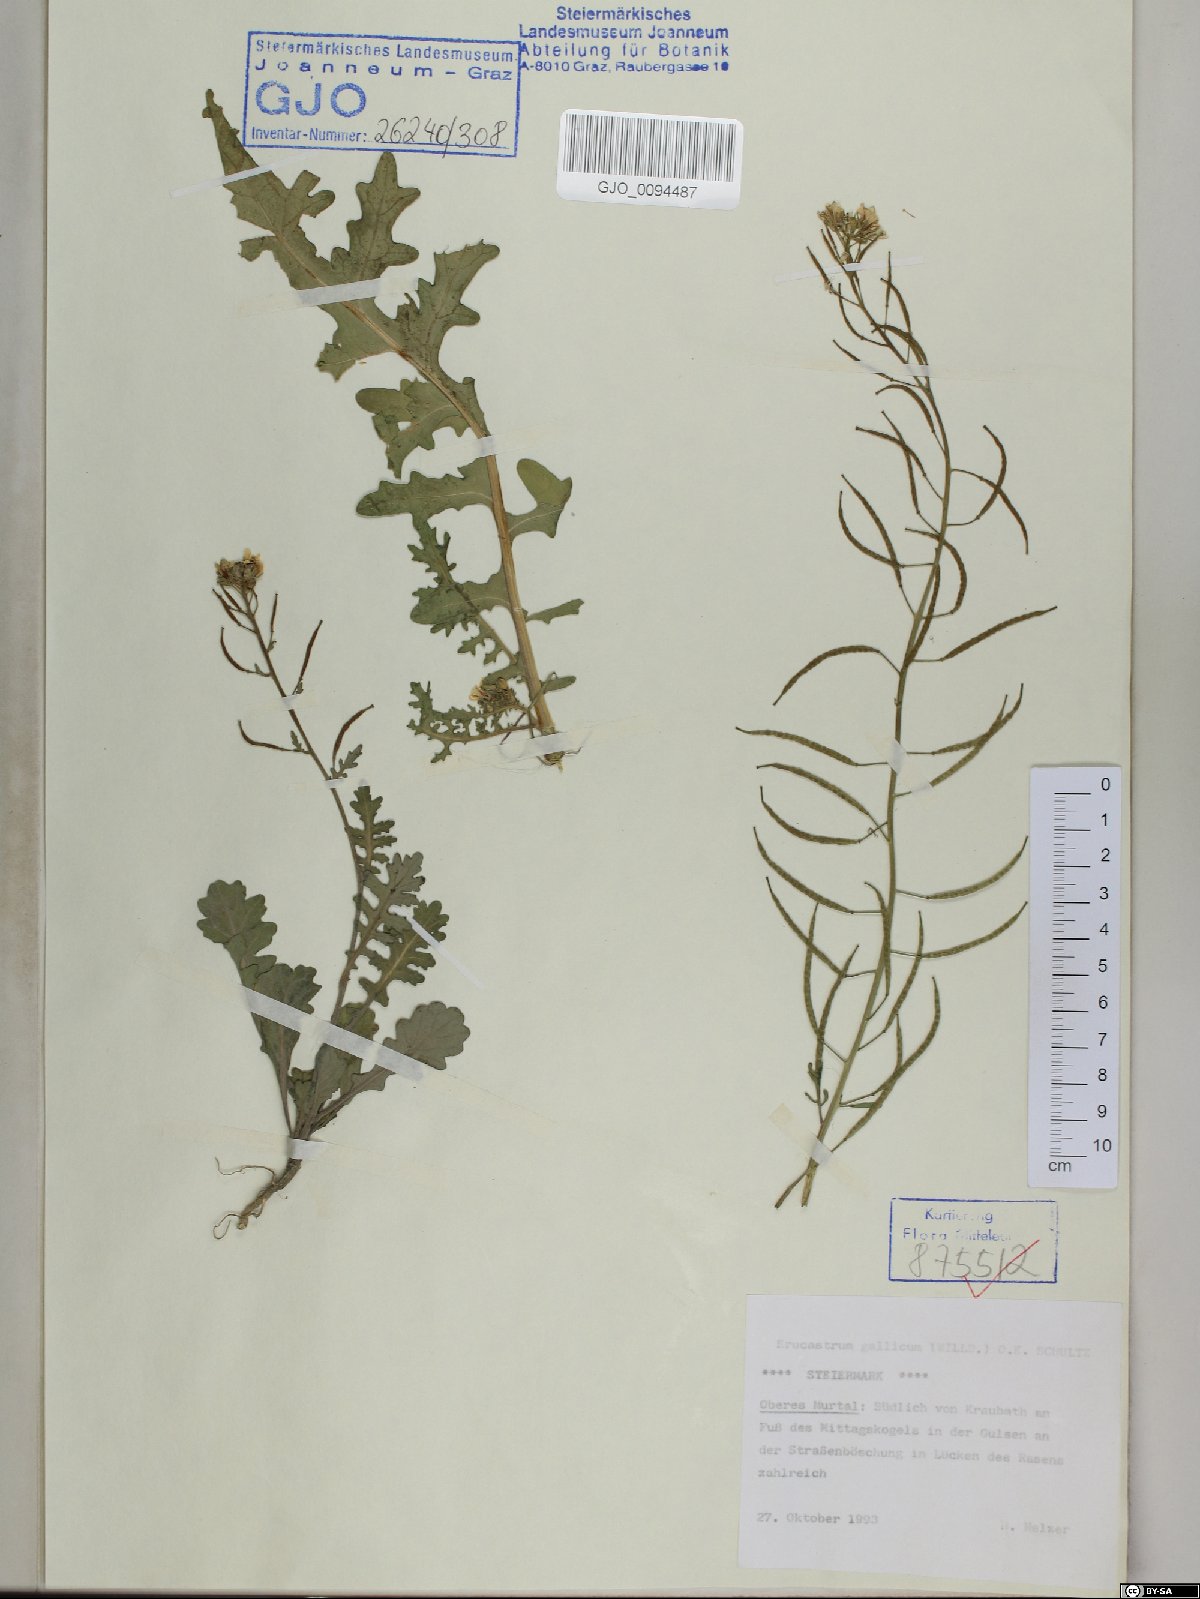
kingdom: Plantae
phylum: Tracheophyta
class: Magnoliopsida
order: Brassicales
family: Brassicaceae
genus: Erucastrum
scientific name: Erucastrum gallicum
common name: Hairy rocket
